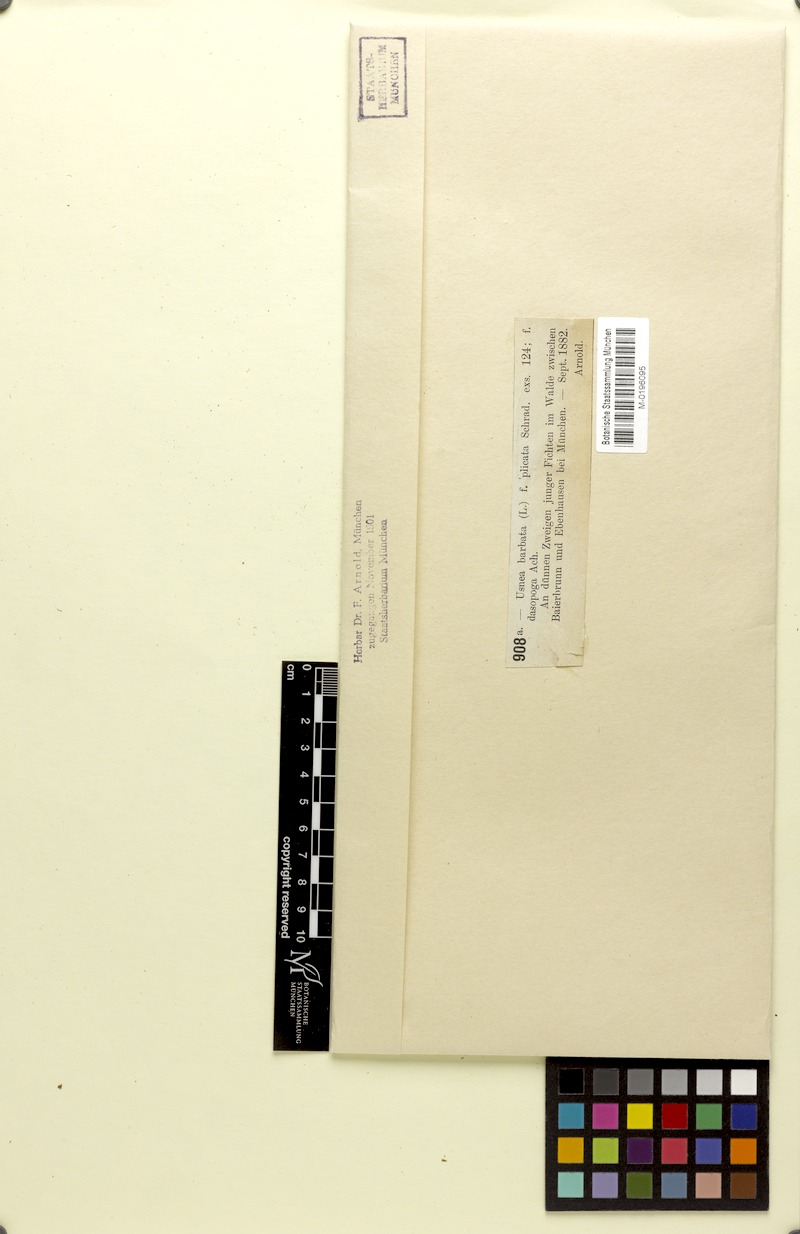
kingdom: Fungi
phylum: Ascomycota
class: Lecanoromycetes
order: Lecanorales
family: Parmeliaceae
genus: Usnea
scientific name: Usnea plicata
